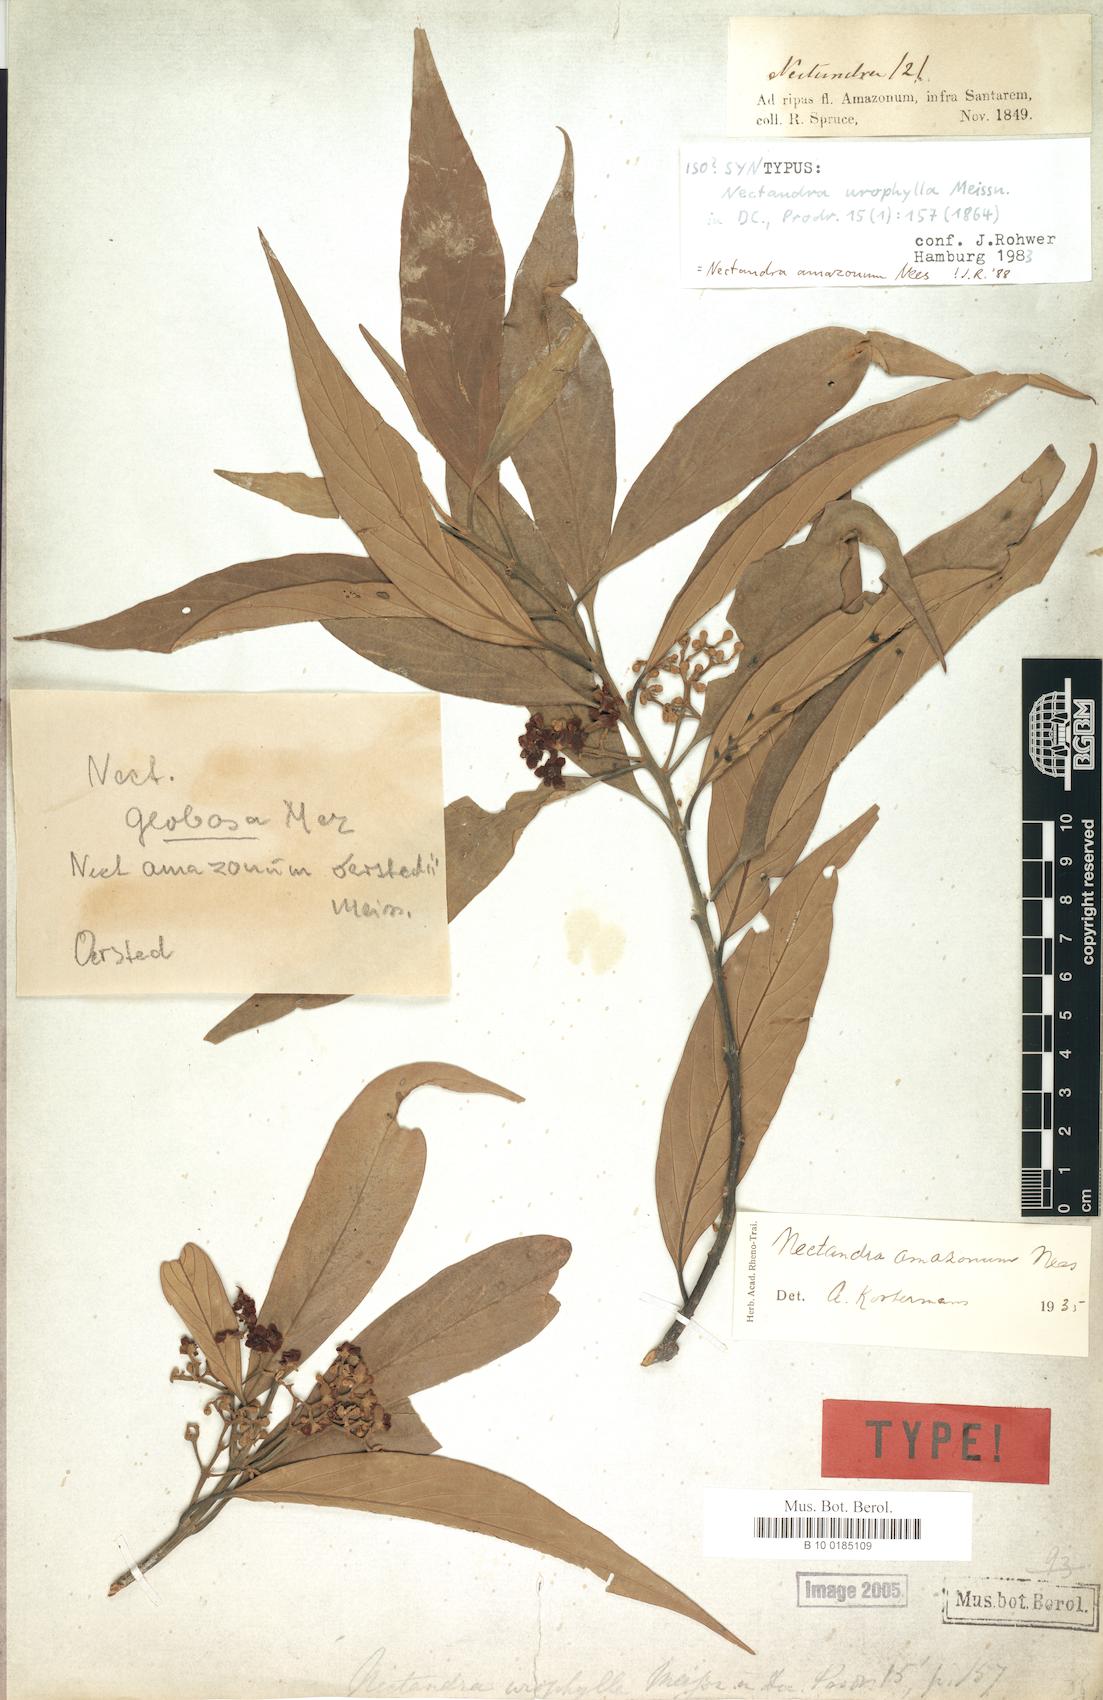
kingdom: Plantae
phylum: Tracheophyta
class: Magnoliopsida
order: Laurales
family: Lauraceae
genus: Nectandra
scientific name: Nectandra amazonum
